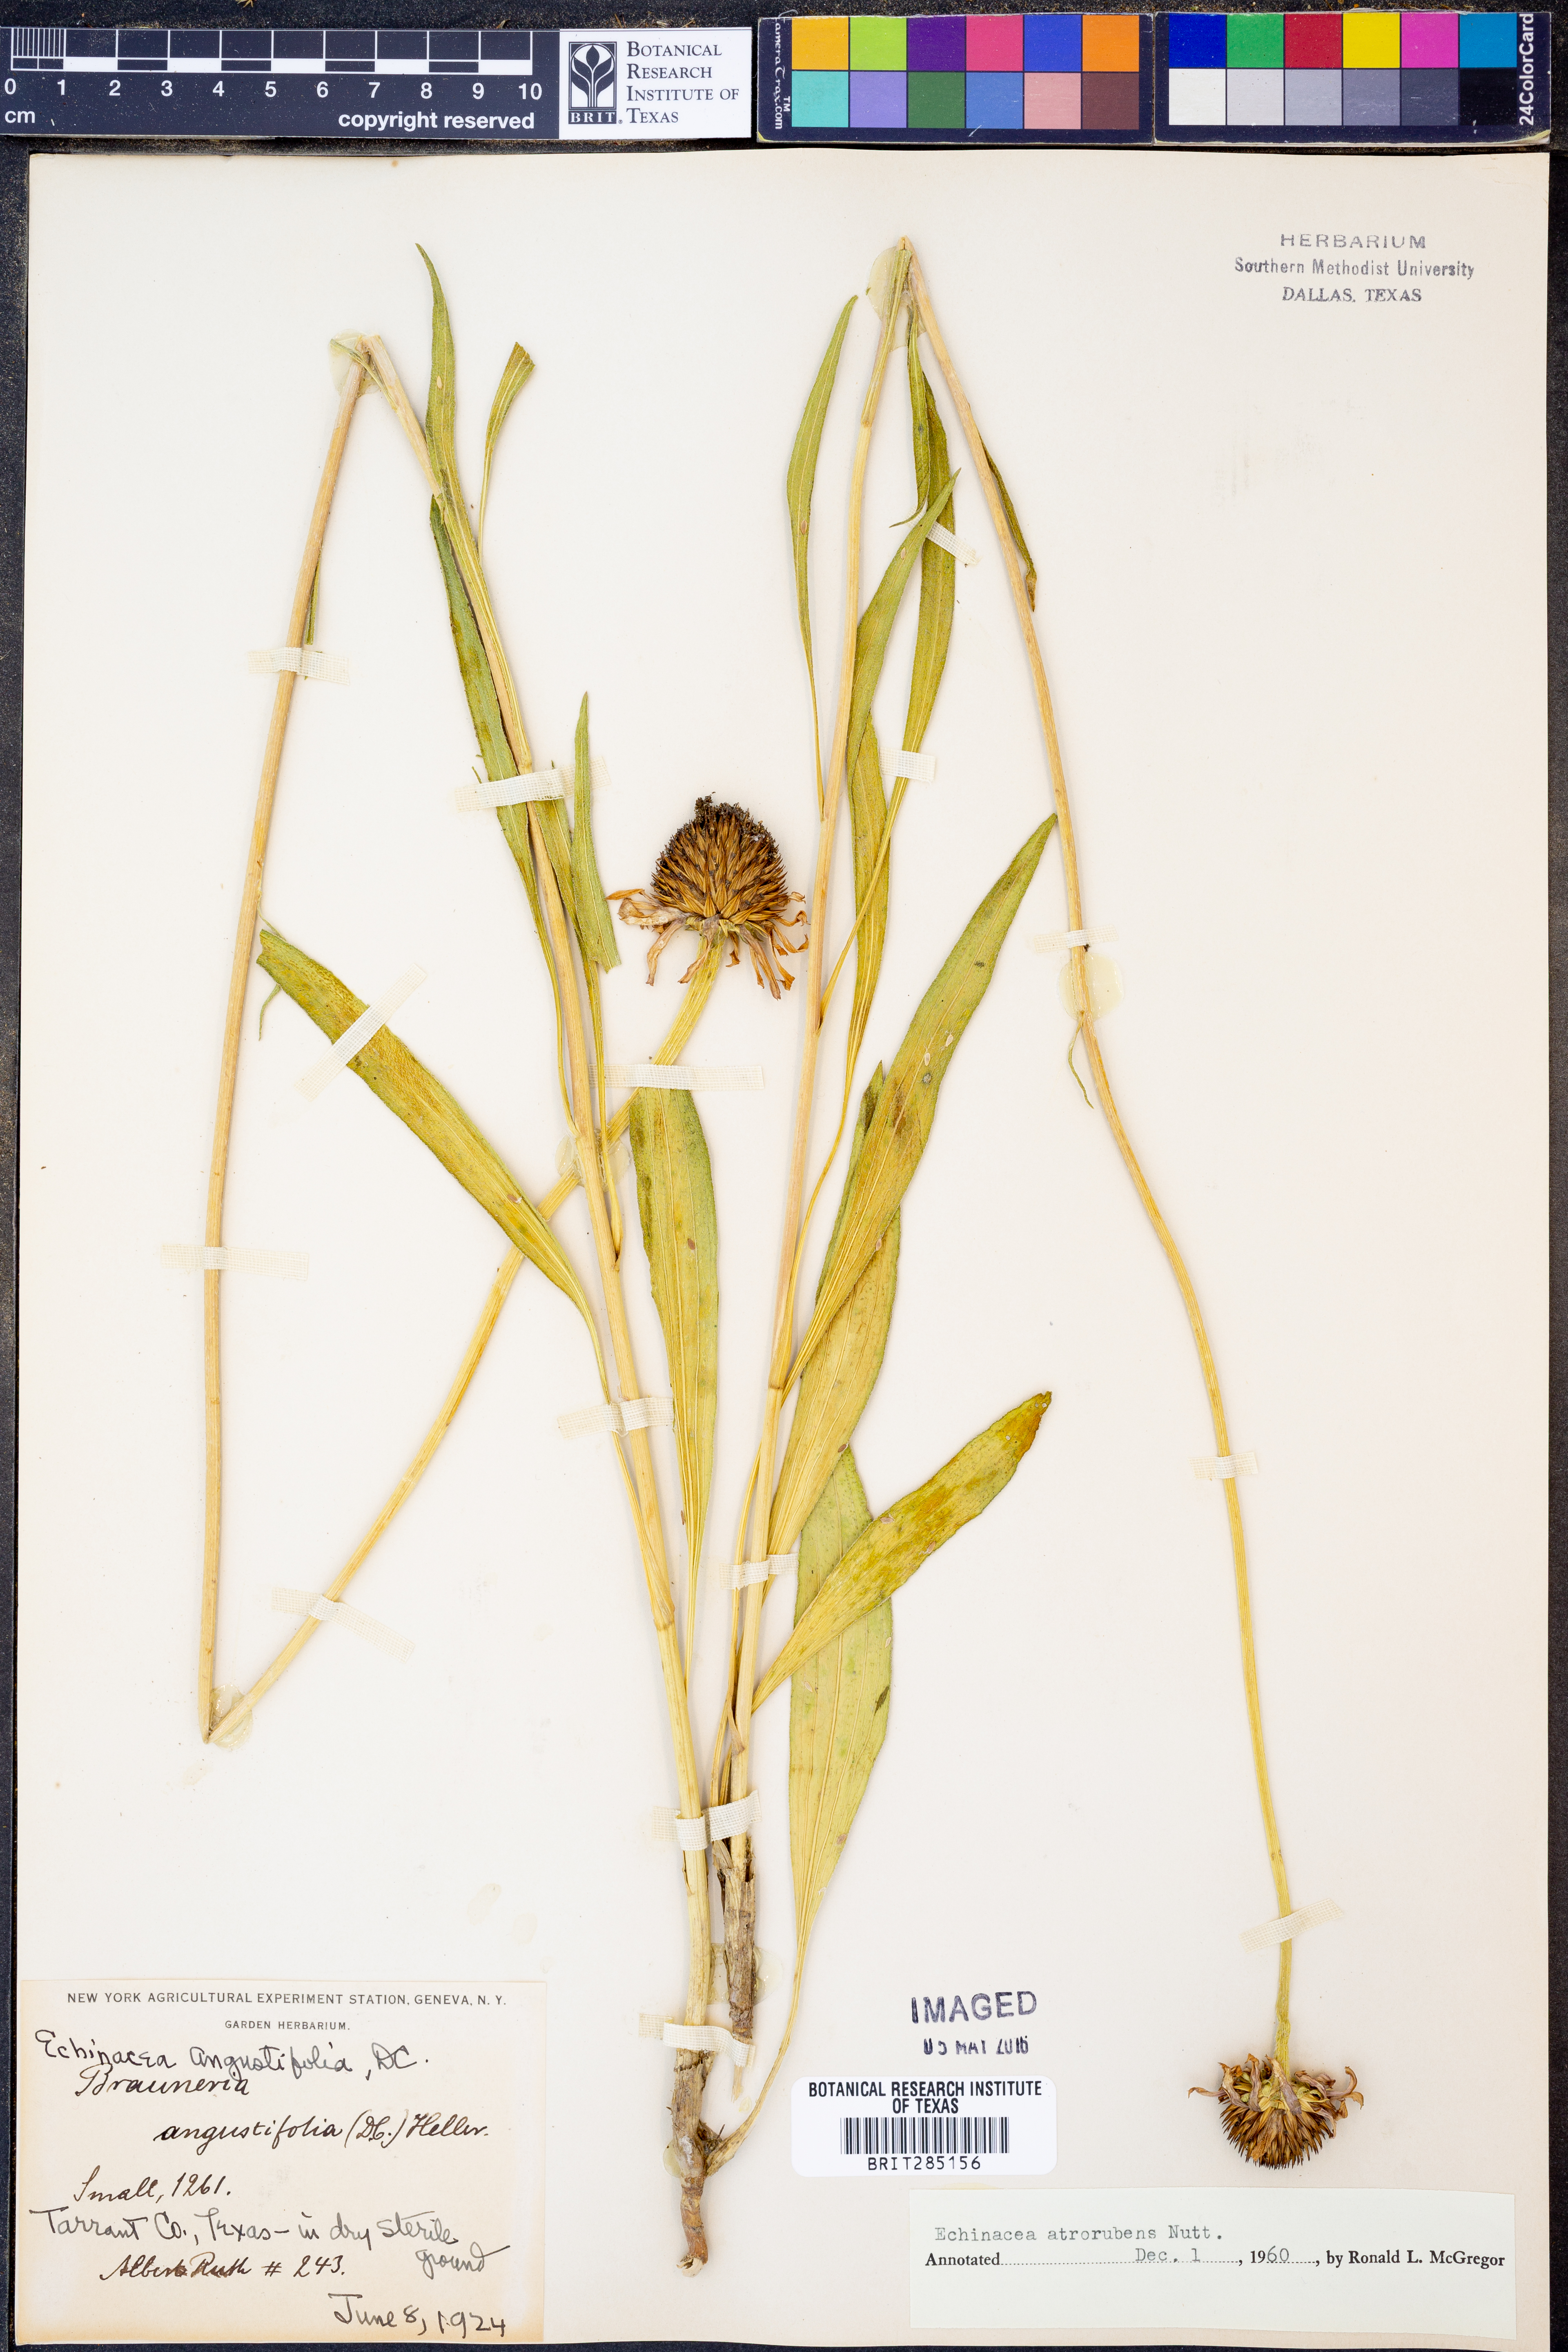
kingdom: Plantae
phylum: Tracheophyta
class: Magnoliopsida
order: Asterales
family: Asteraceae
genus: Echinacea
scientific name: Echinacea atrorubens
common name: Topeka purple-coneflower
